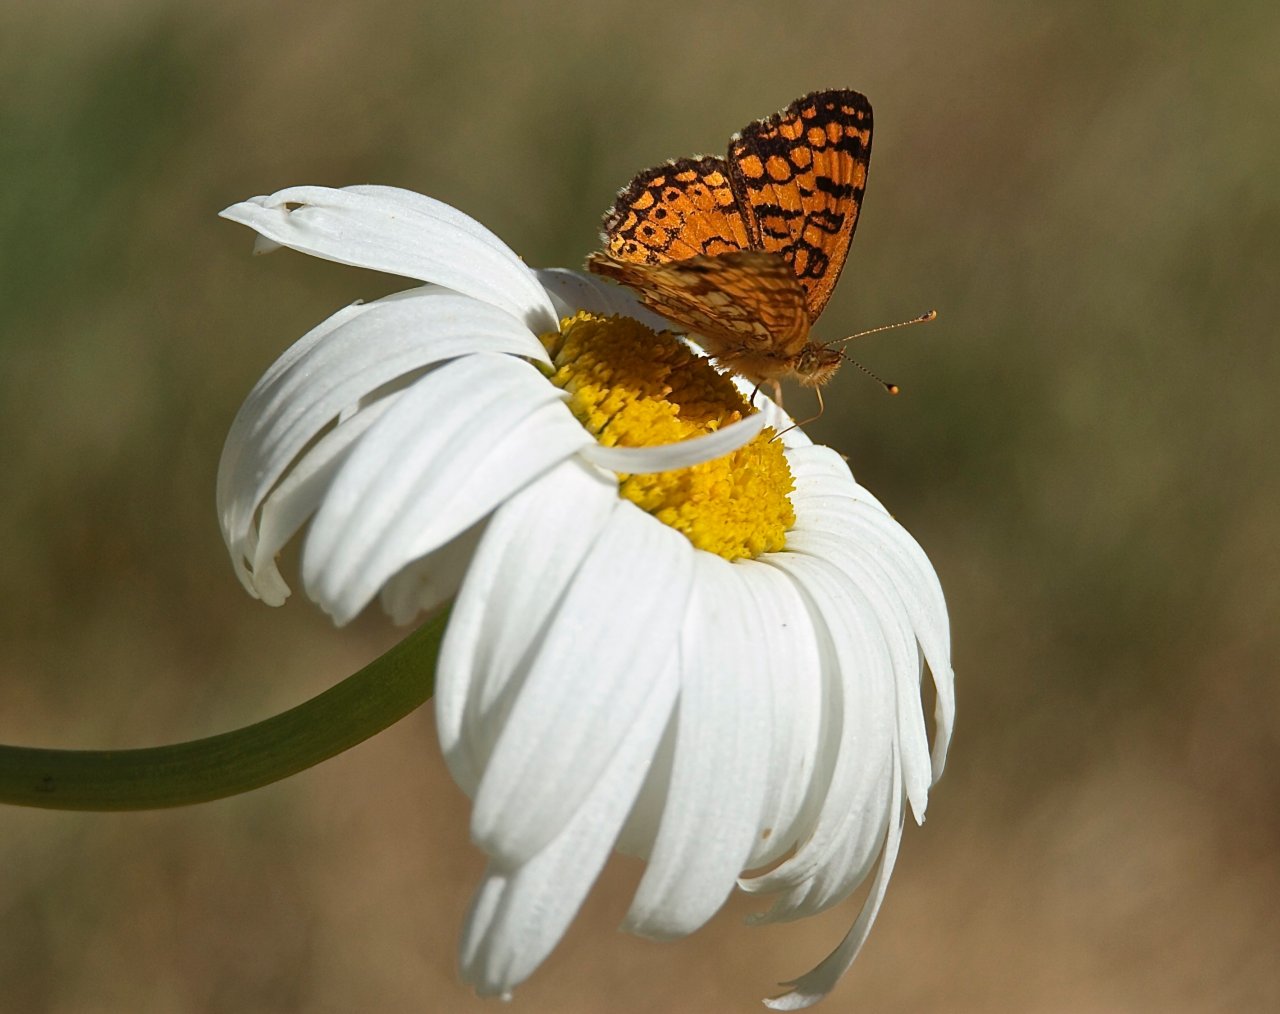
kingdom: Animalia
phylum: Arthropoda
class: Insecta
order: Lepidoptera
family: Nymphalidae
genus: Eresia
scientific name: Eresia aveyrona
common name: Mylitta Crescent
